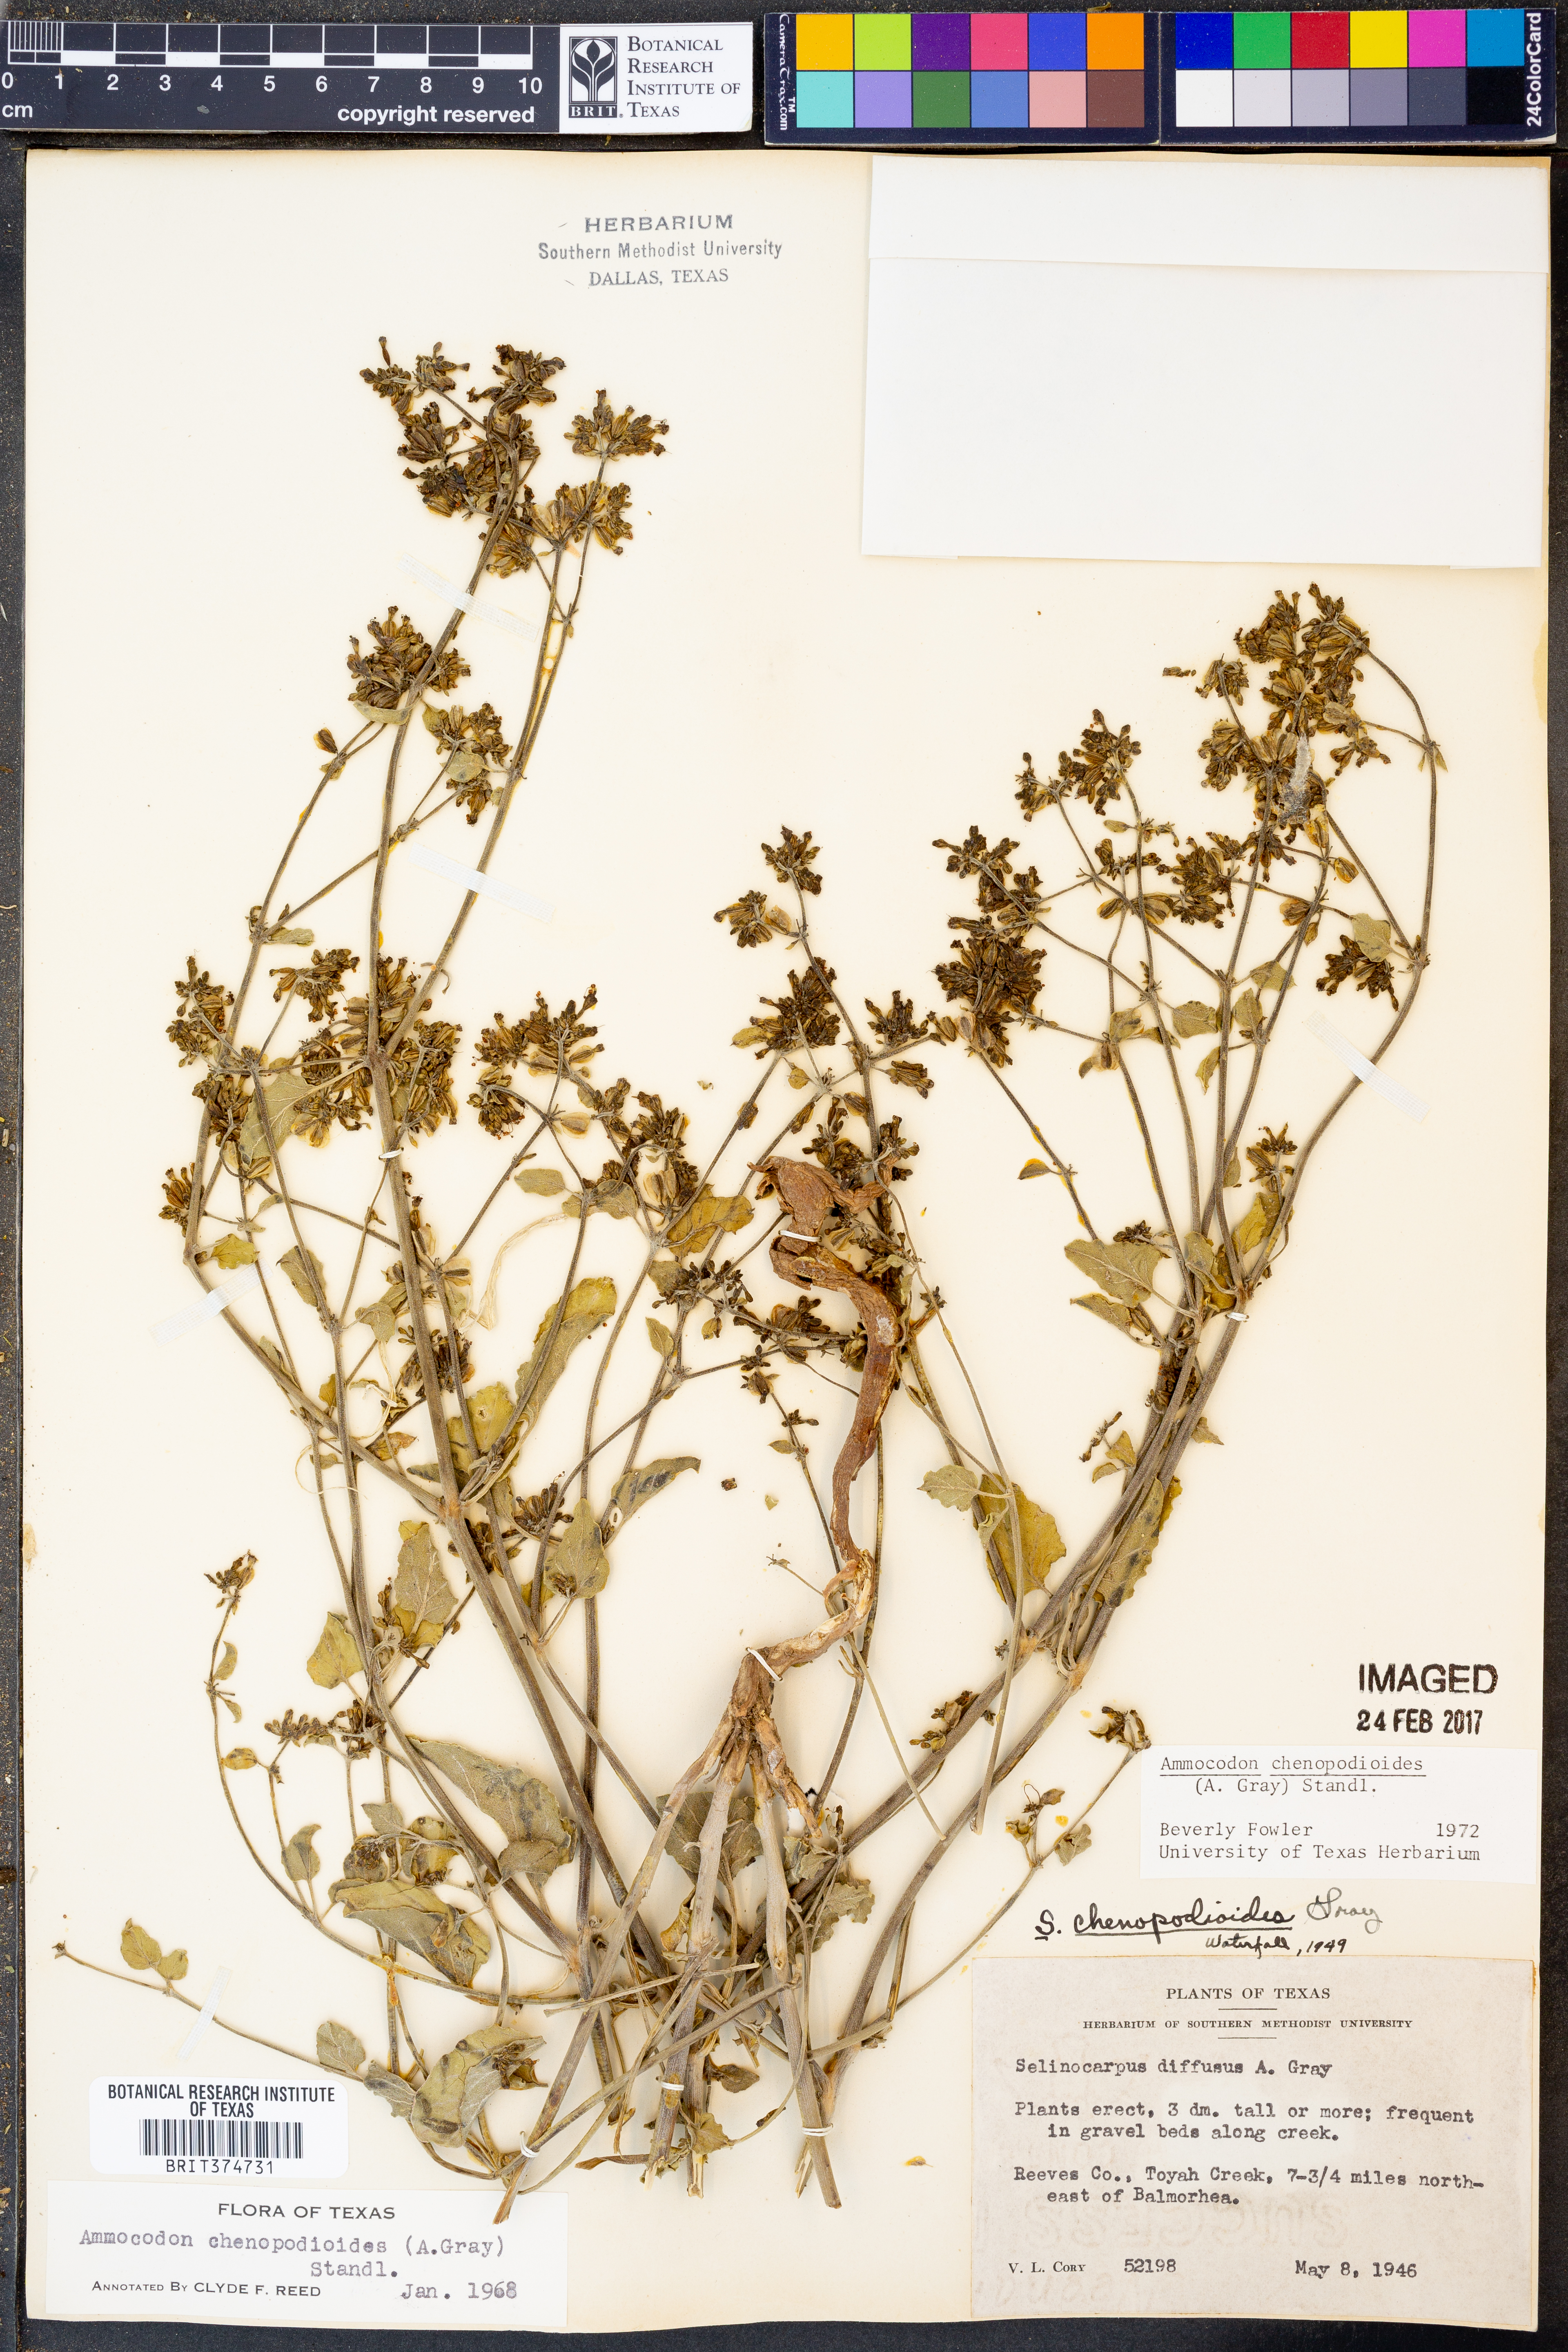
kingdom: Plantae
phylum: Tracheophyta
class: Magnoliopsida
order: Caryophyllales
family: Nyctaginaceae
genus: Acleisanthes
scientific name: Acleisanthes chenopodioides
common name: Goosefoot moonpod
